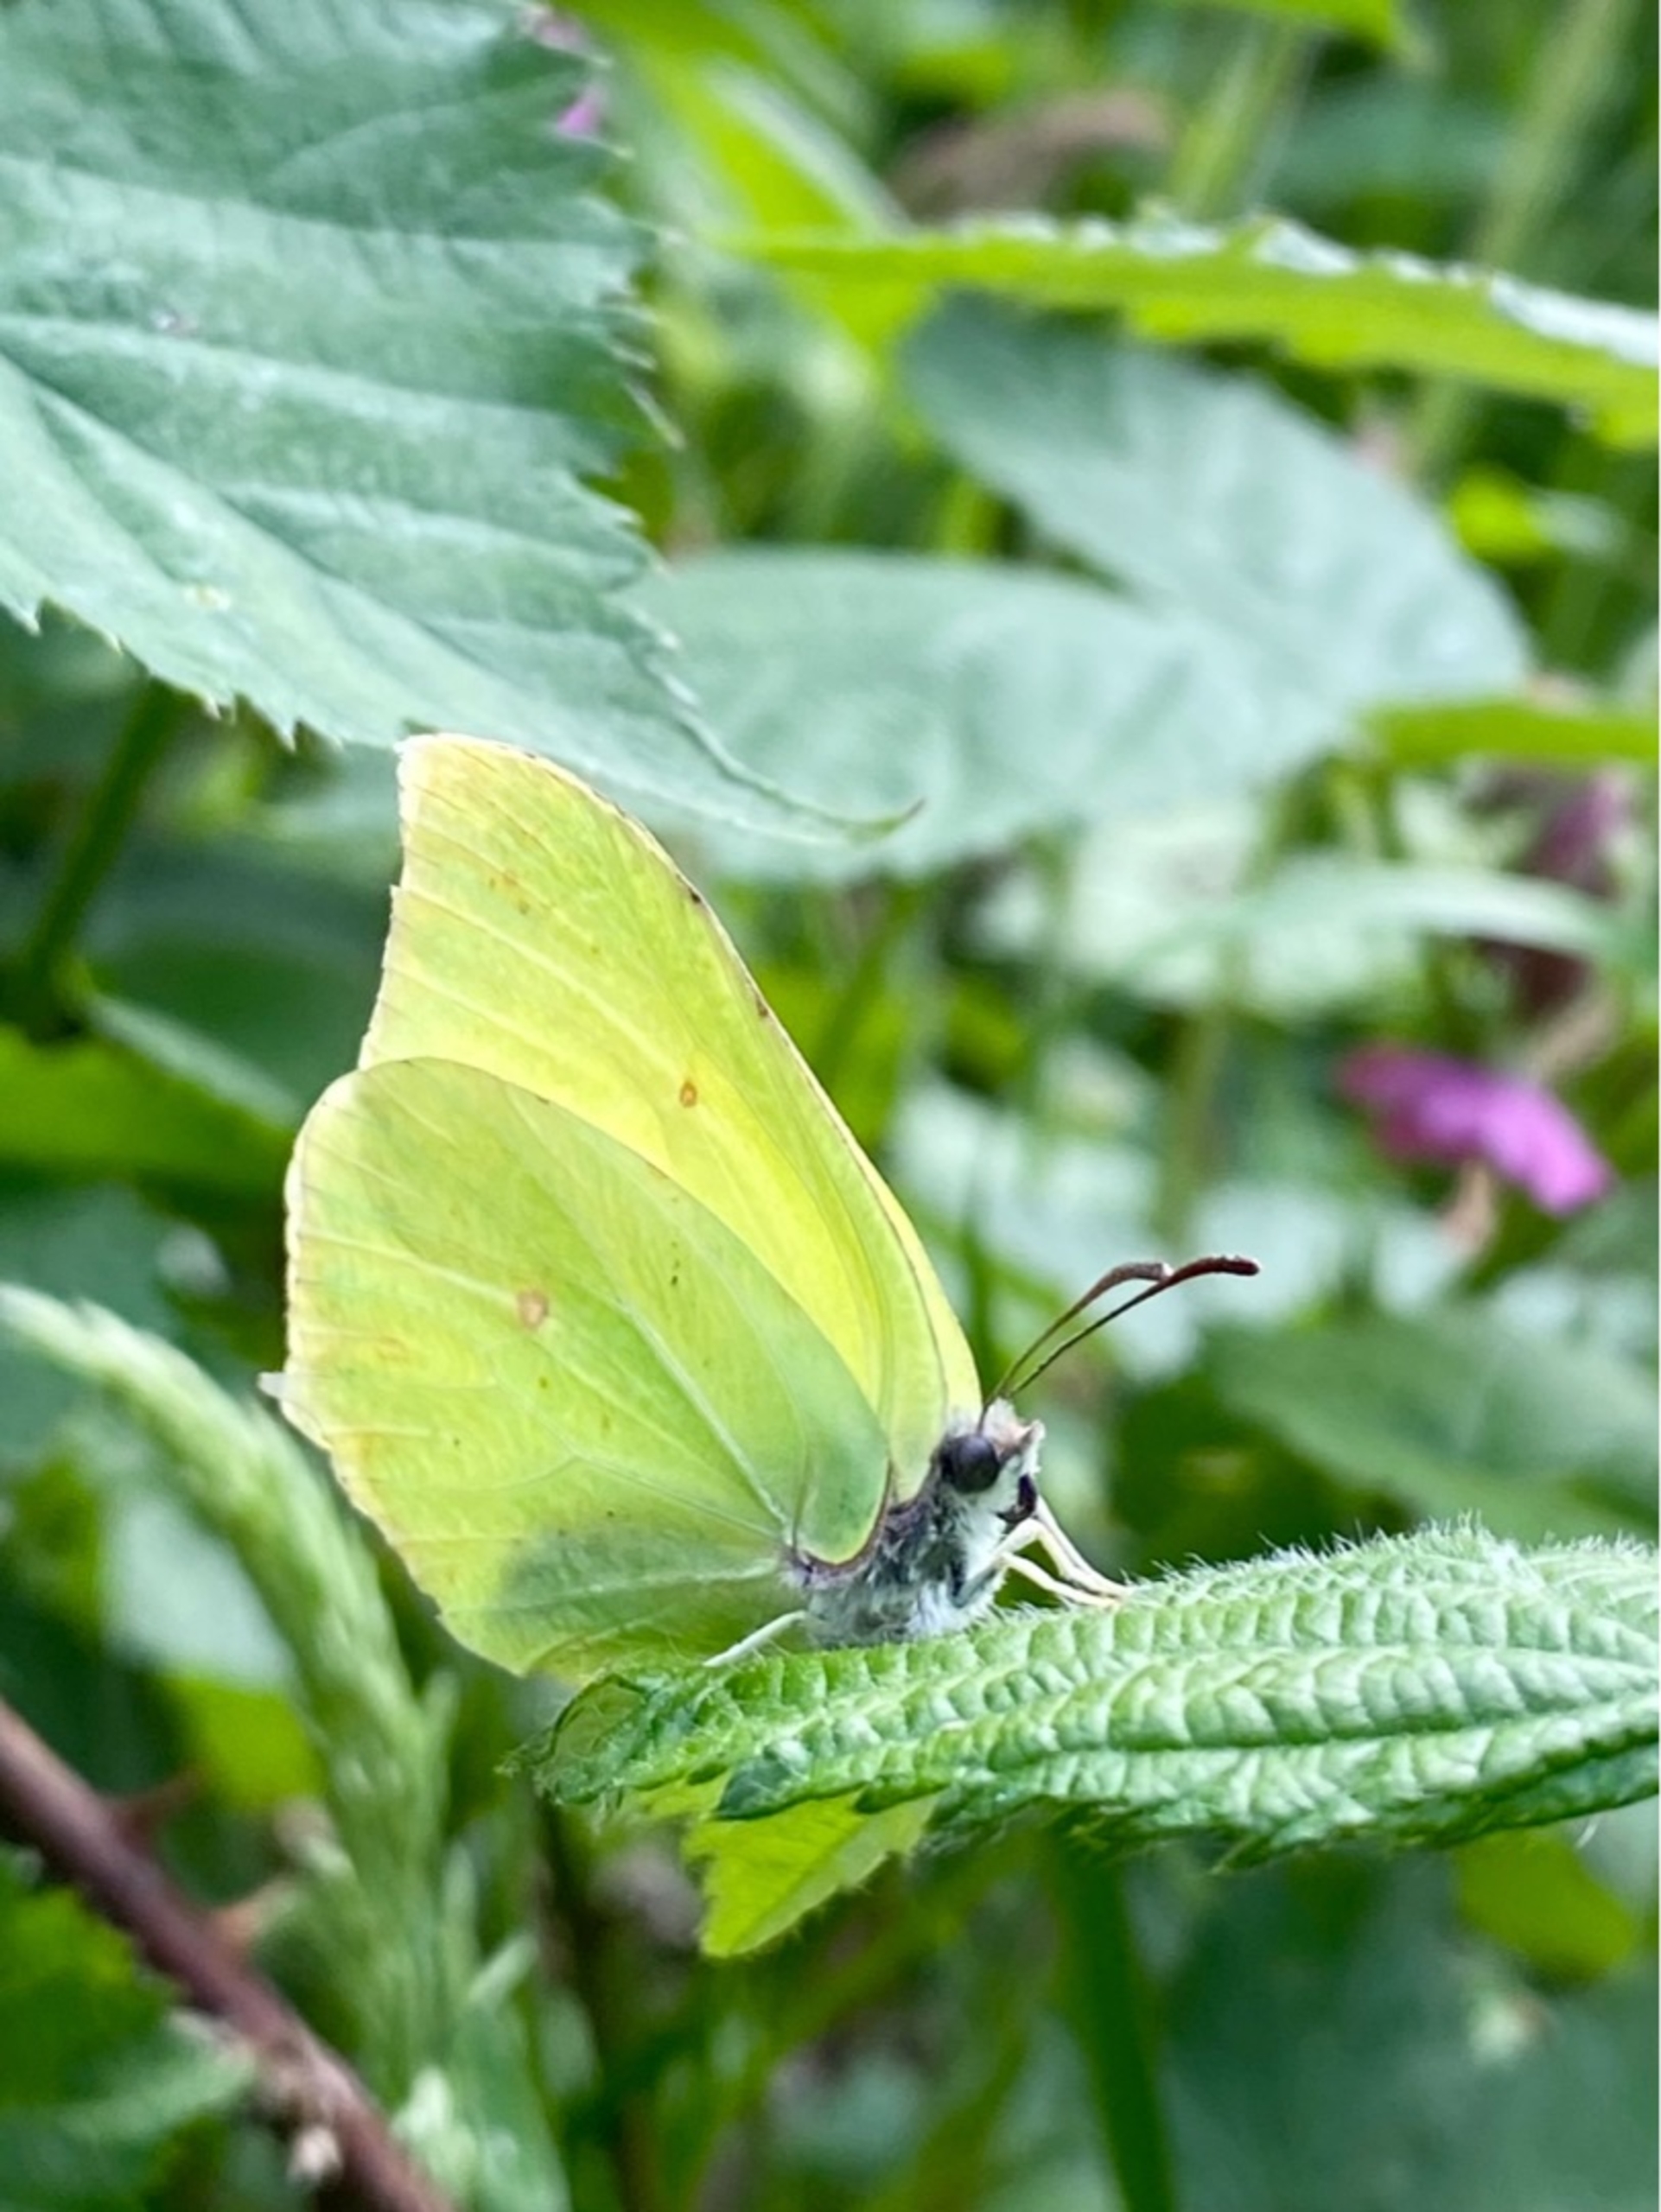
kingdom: Animalia
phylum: Arthropoda
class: Insecta
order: Lepidoptera
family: Pieridae
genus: Gonepteryx
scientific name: Gonepteryx rhamni
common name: Citronsommerfugl
